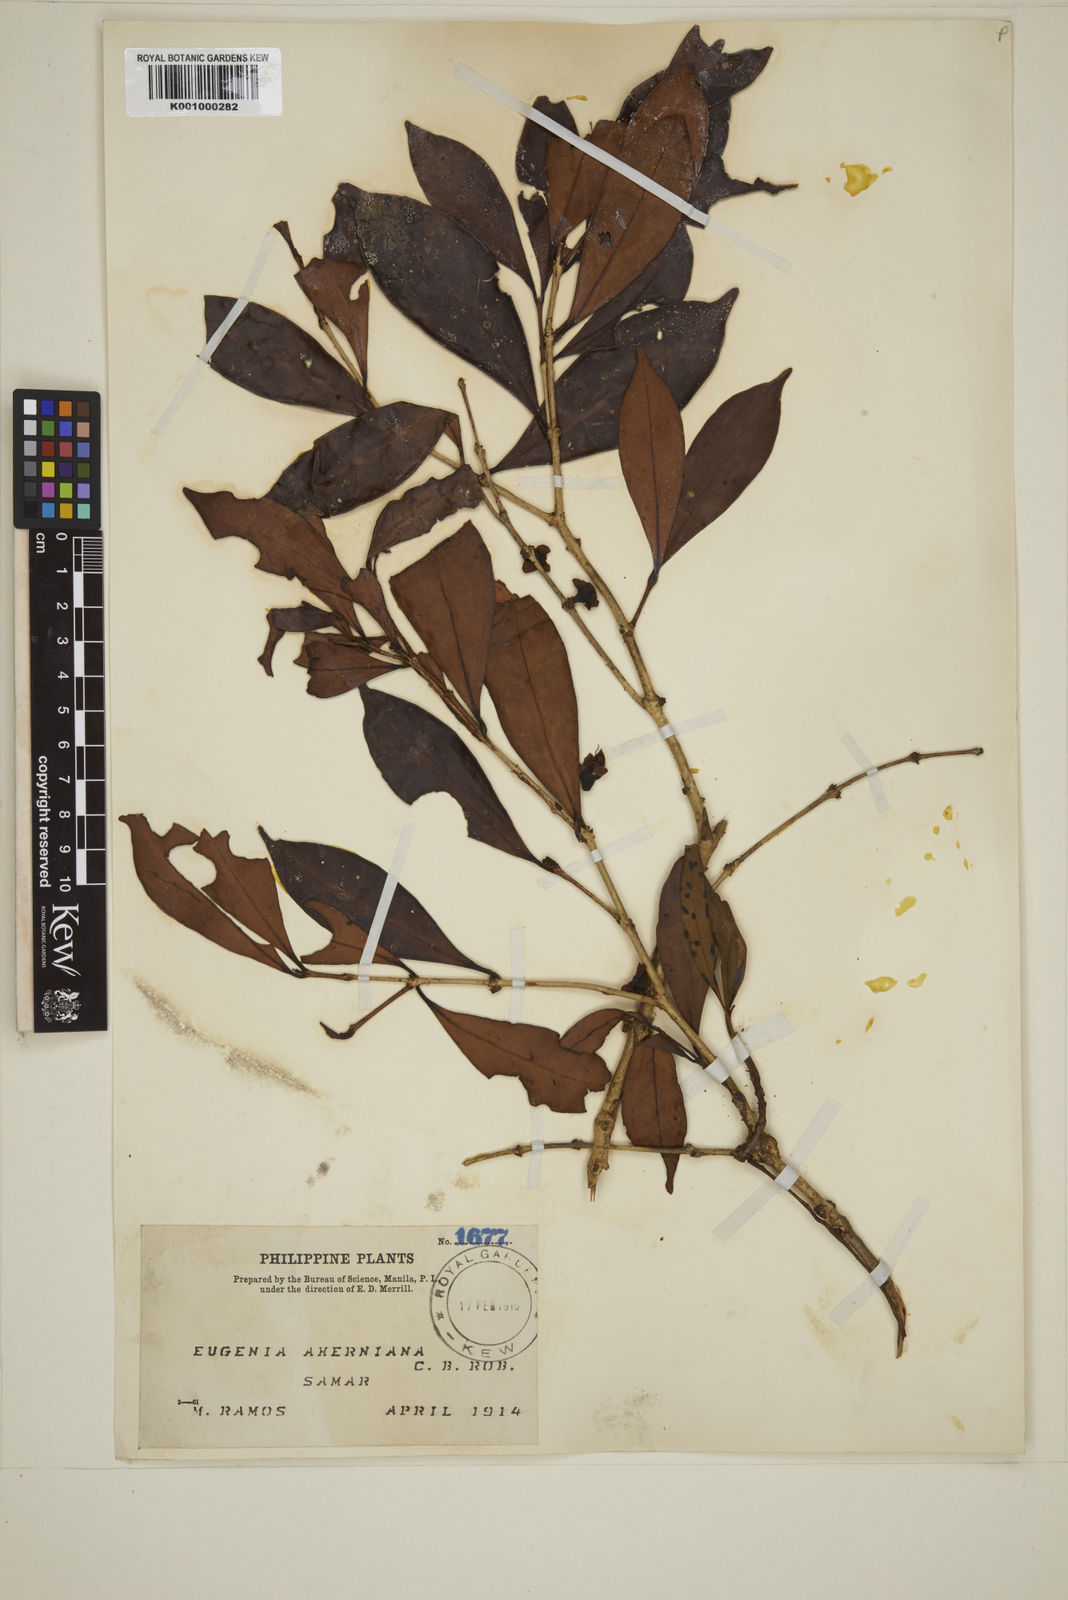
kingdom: Plantae
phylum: Tracheophyta
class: Magnoliopsida
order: Myrtales
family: Myrtaceae
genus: Eugenia
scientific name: Eugenia aherniana
